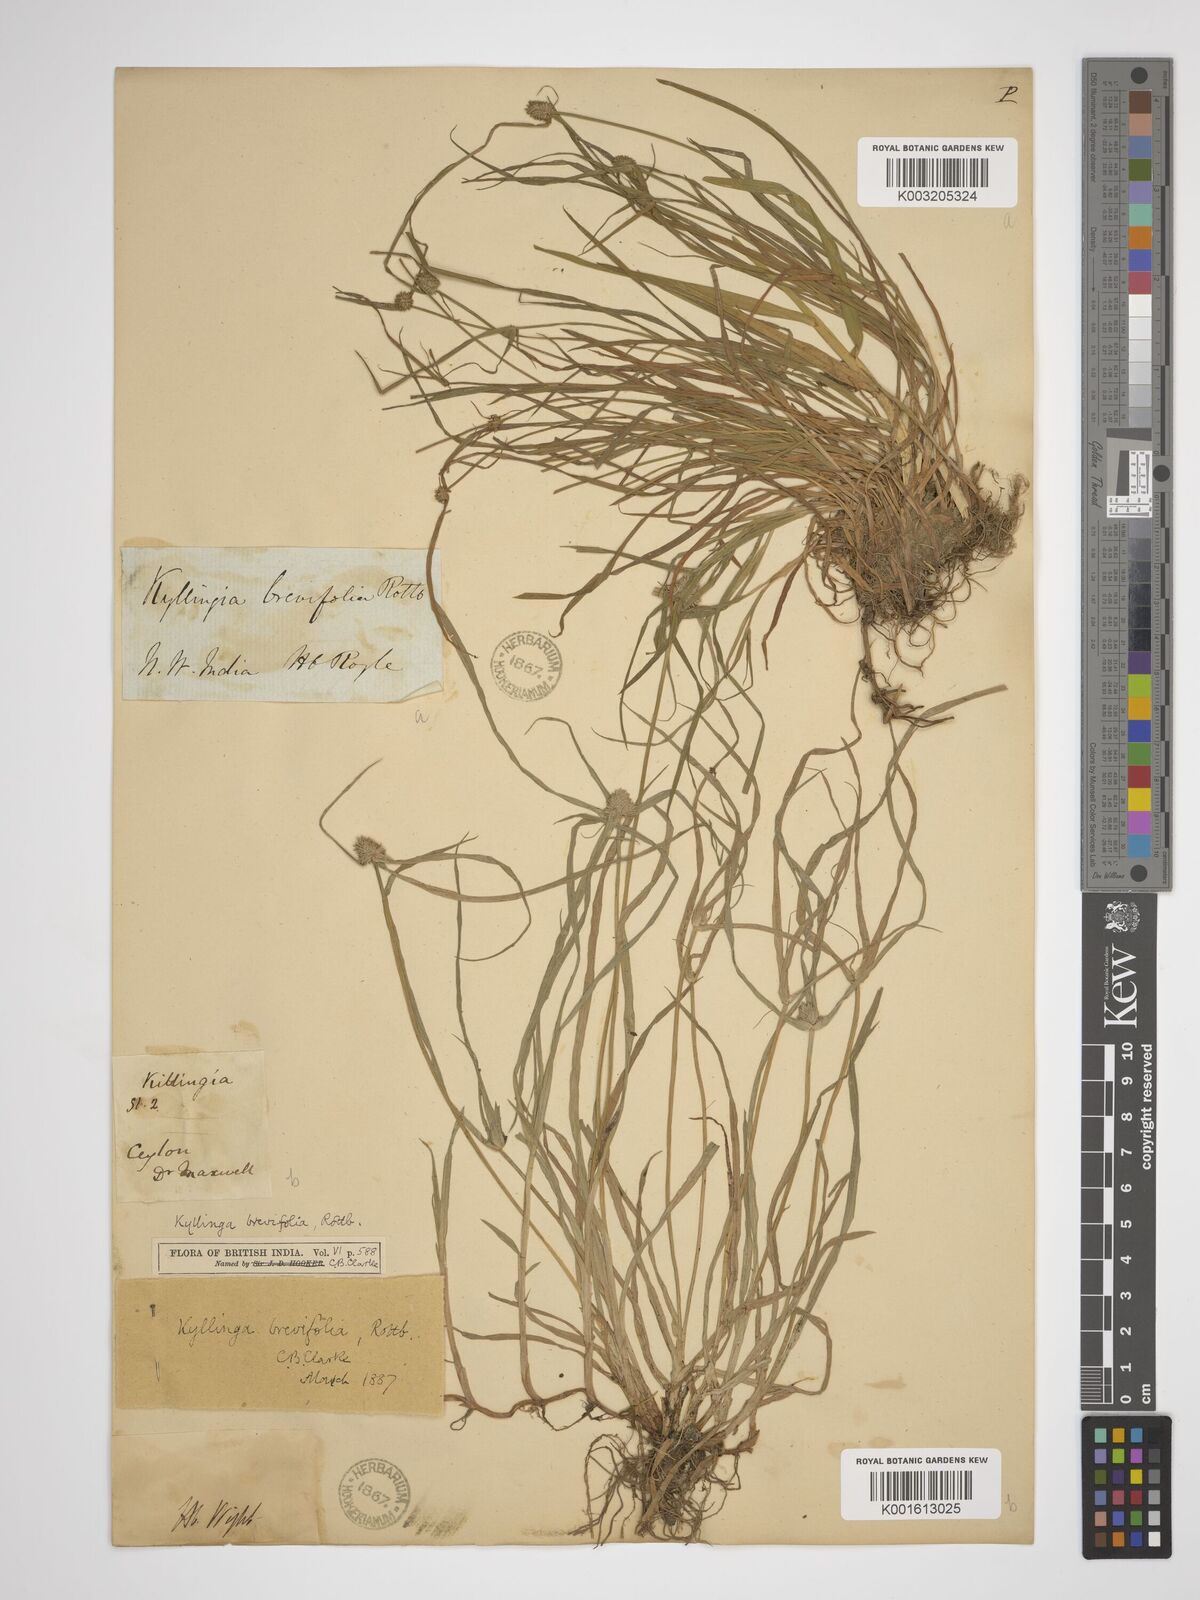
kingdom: Plantae
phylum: Tracheophyta
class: Liliopsida
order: Poales
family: Cyperaceae
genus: Cyperus
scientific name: Cyperus brevifolius
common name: Globe kyllinga
